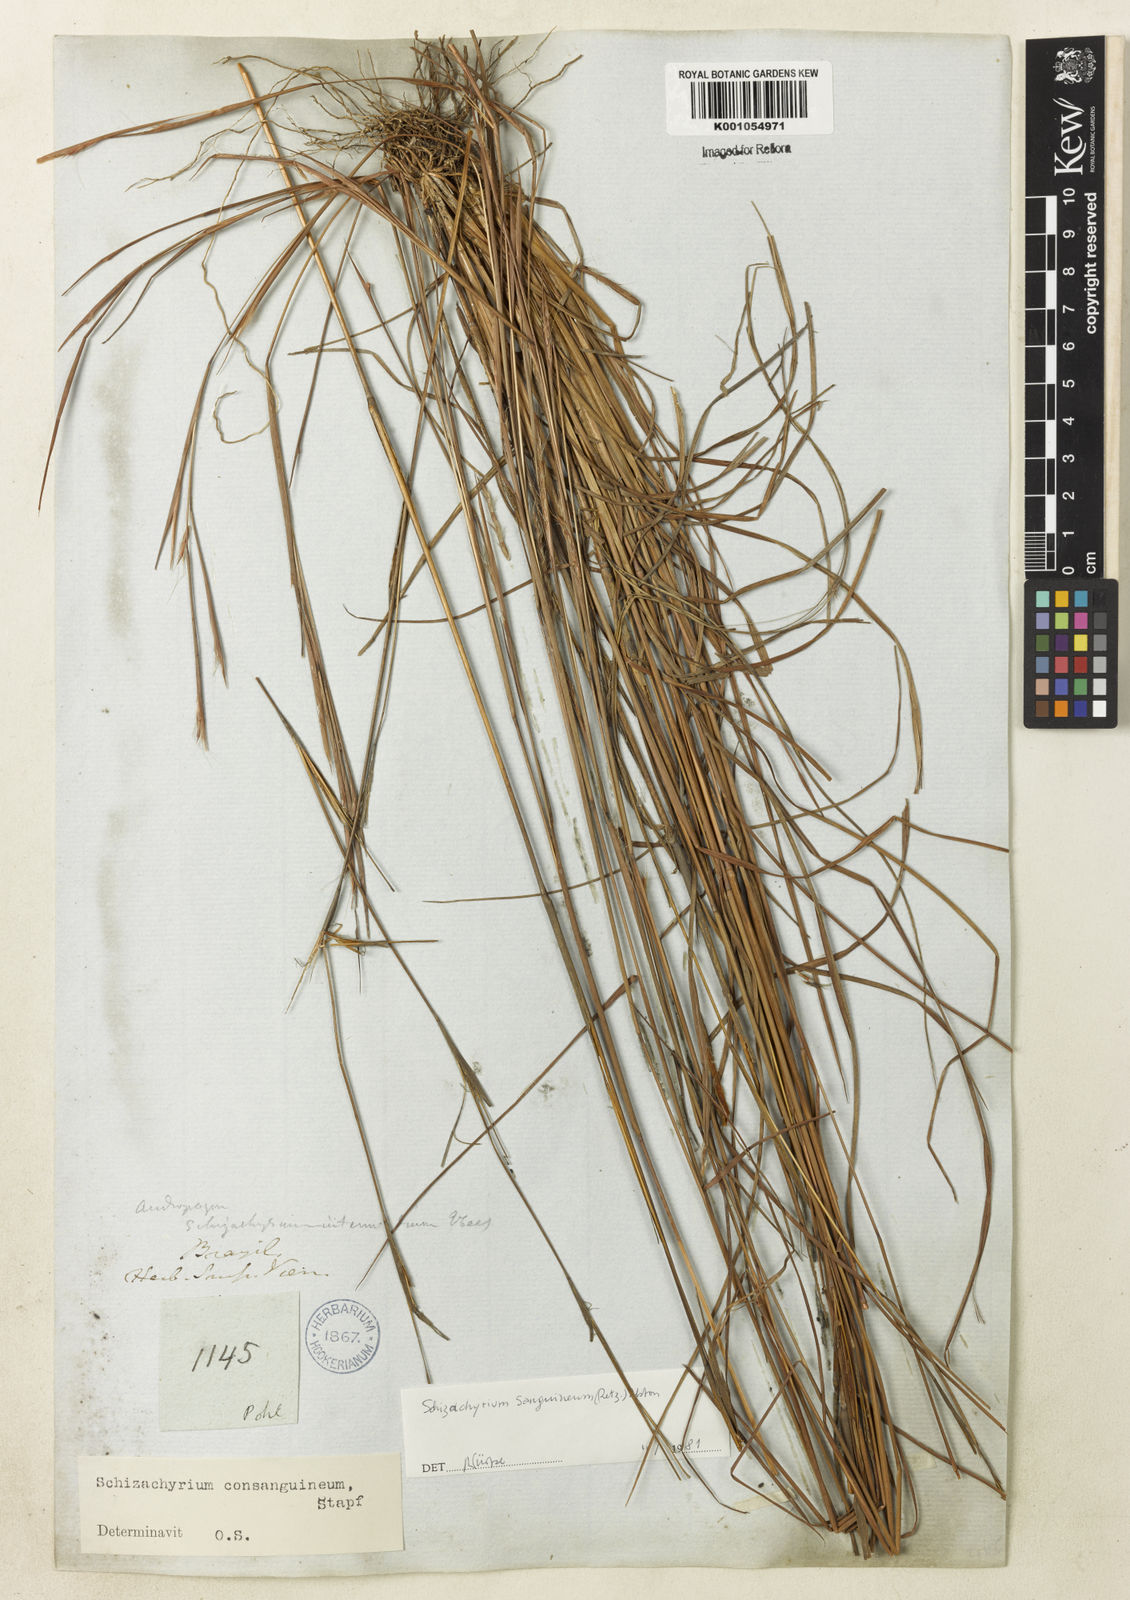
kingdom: Plantae
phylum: Tracheophyta
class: Liliopsida
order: Poales
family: Poaceae
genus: Schizachyrium
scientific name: Schizachyrium sanguineum
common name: Crimson bluestem
